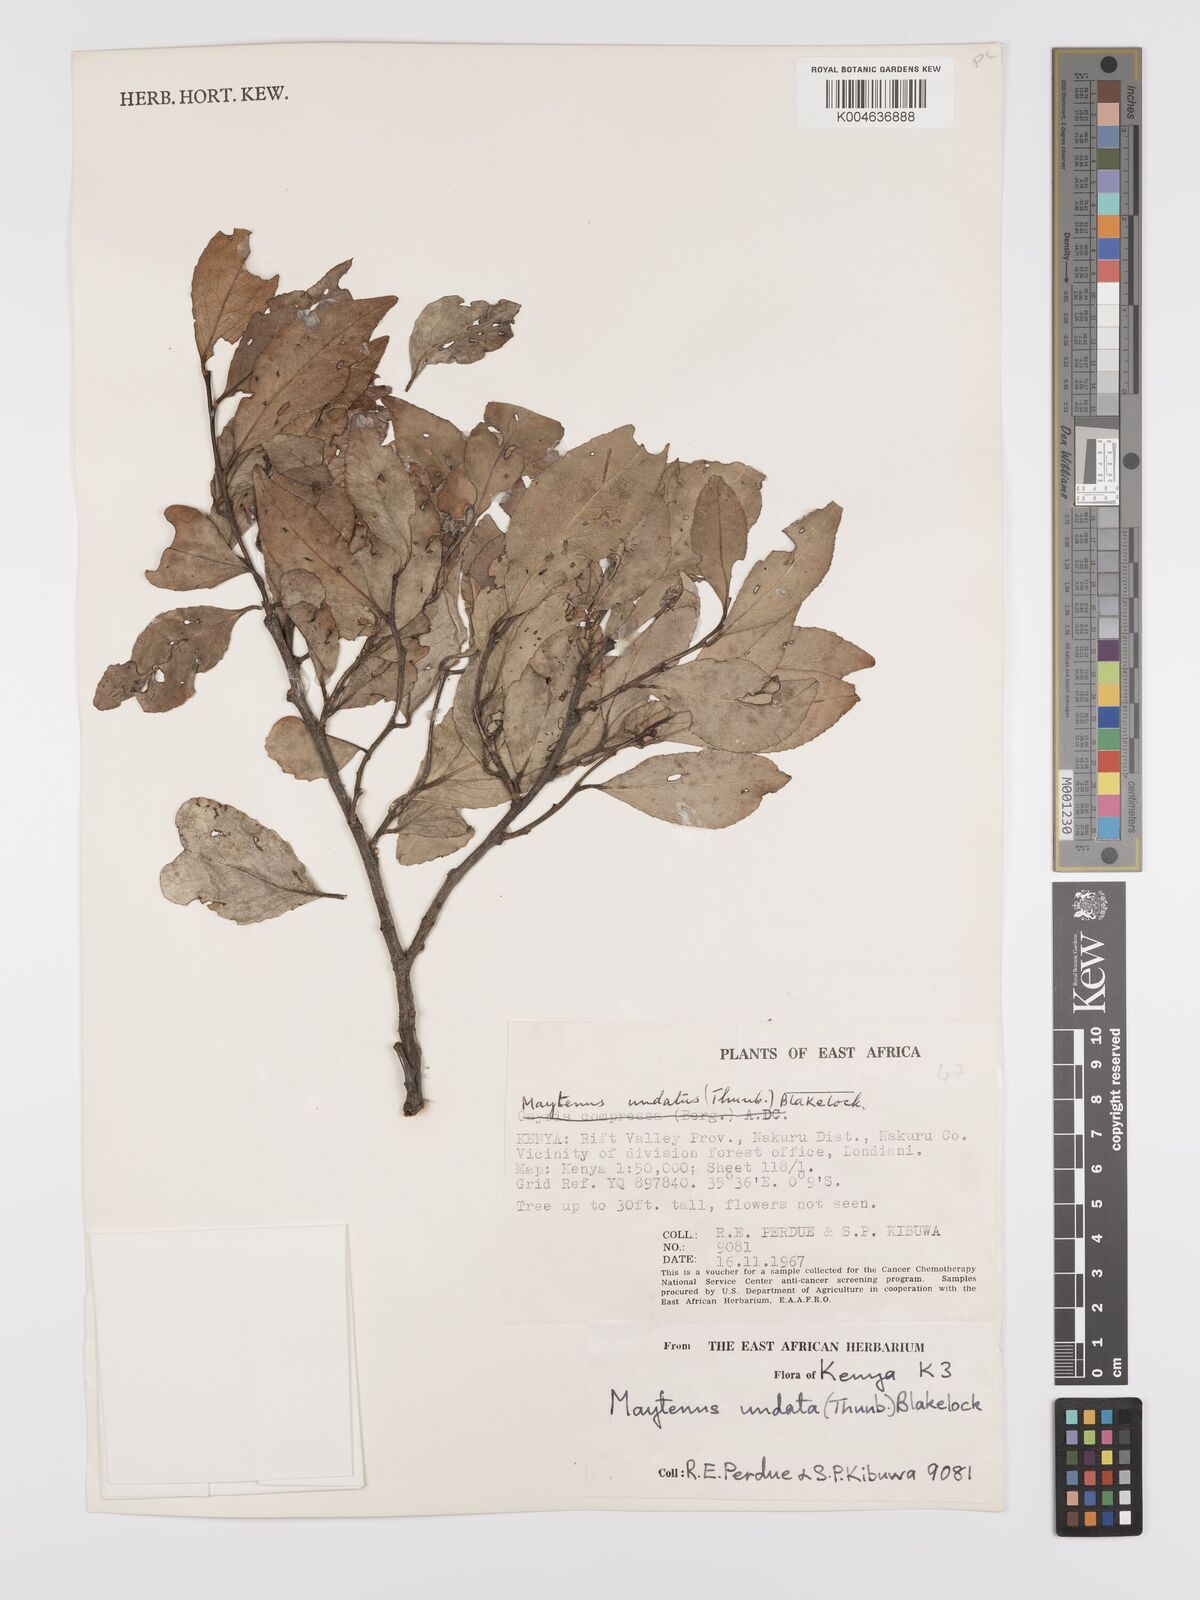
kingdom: Plantae
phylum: Tracheophyta
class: Magnoliopsida
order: Celastrales
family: Celastraceae
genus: Gymnosporia
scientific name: Gymnosporia undata
